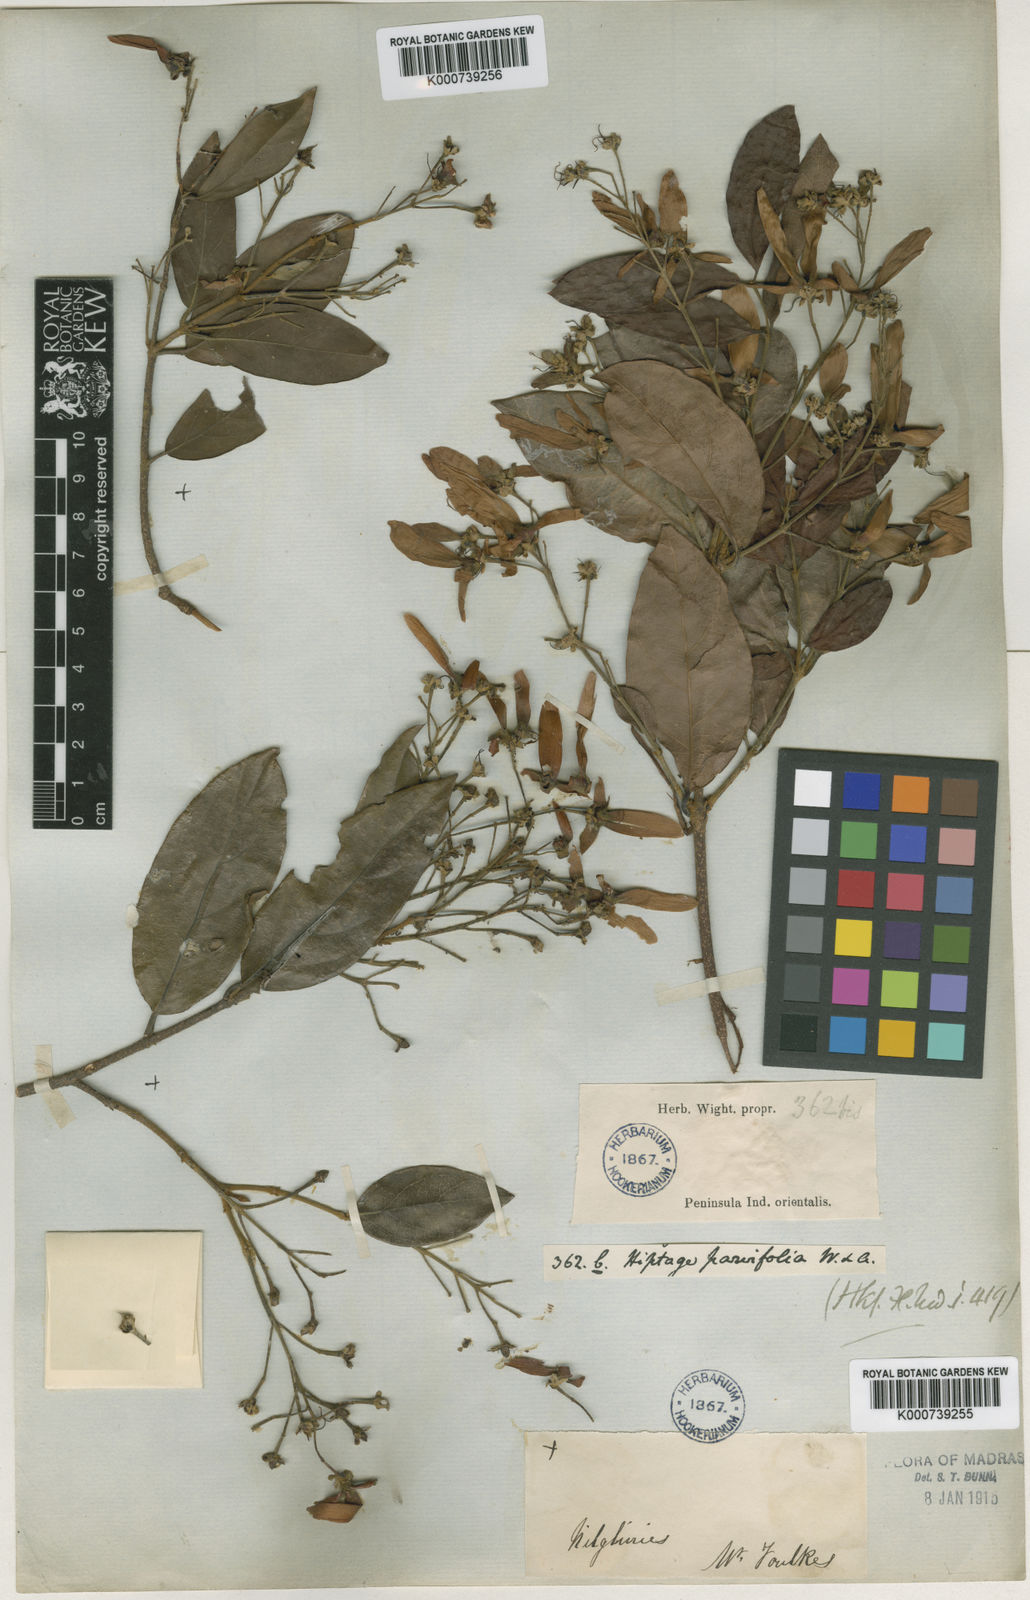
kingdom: Plantae
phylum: Tracheophyta
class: Magnoliopsida
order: Malpighiales
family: Malpighiaceae
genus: Hiptage
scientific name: Hiptage benghalensis
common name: Hiptage
